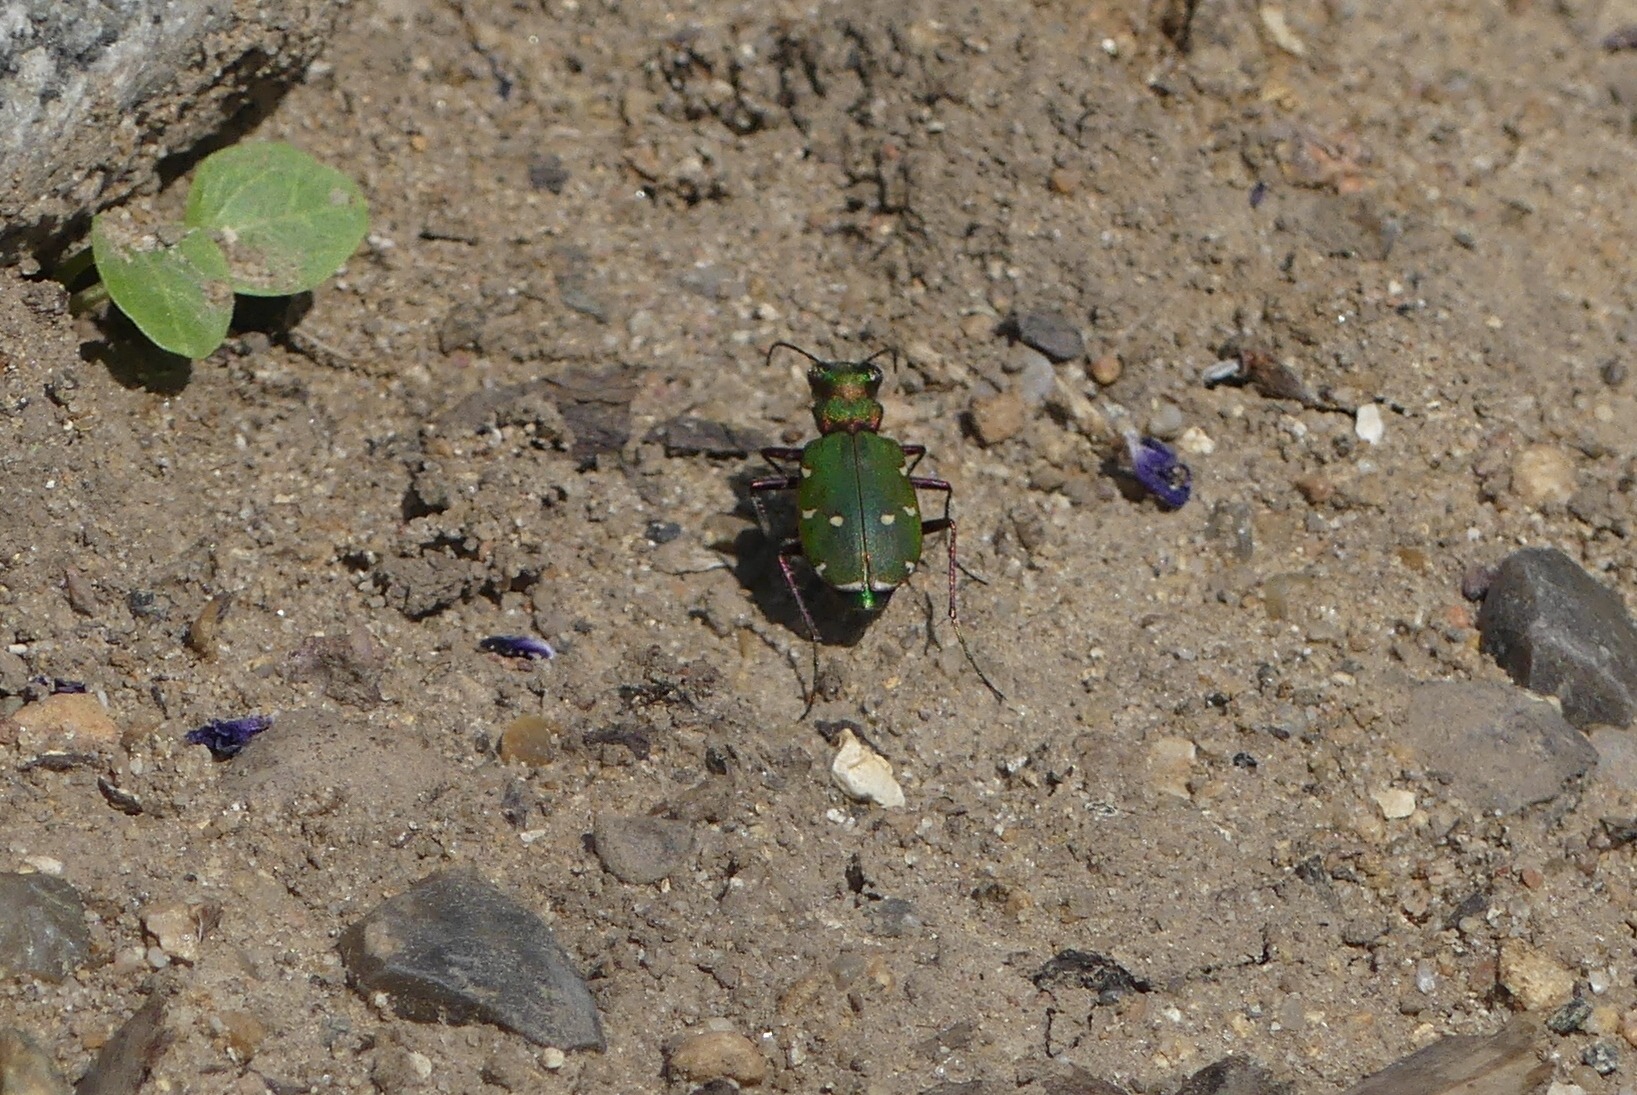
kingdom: Animalia
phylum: Arthropoda
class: Insecta
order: Coleoptera
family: Carabidae
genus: Cicindela
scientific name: Cicindela campestris
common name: Grøn sandspringer
